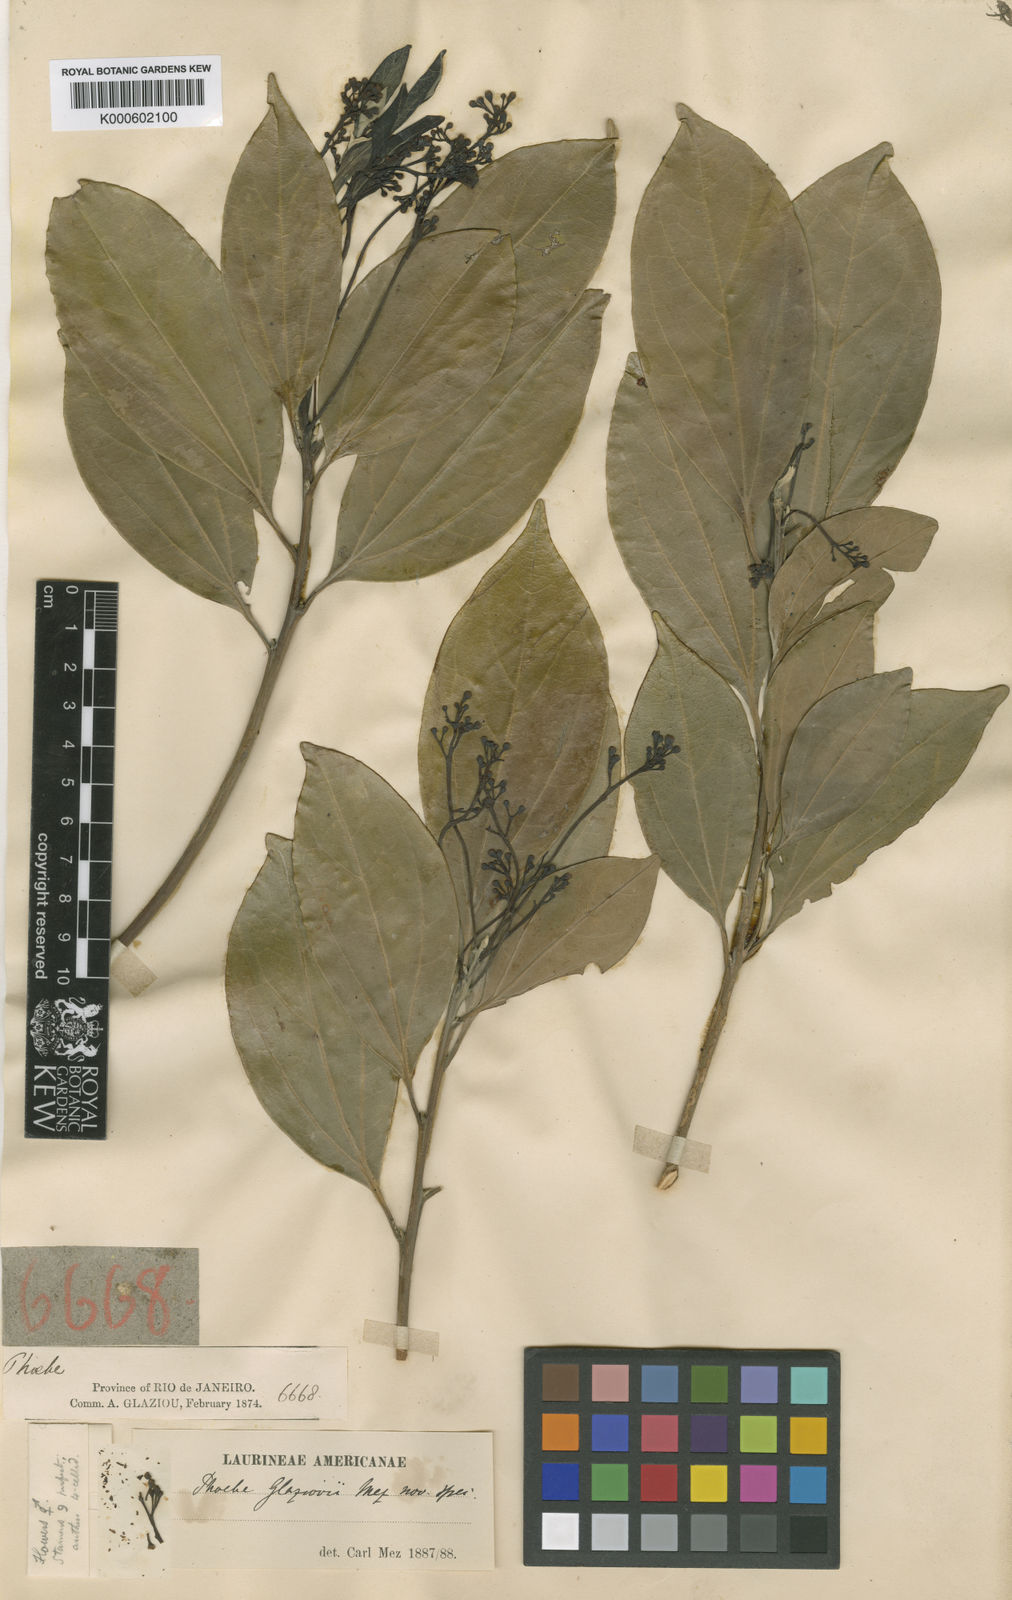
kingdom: Plantae
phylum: Tracheophyta
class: Magnoliopsida
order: Laurales
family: Lauraceae
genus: Aiouea
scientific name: Aiouea glaziovii
